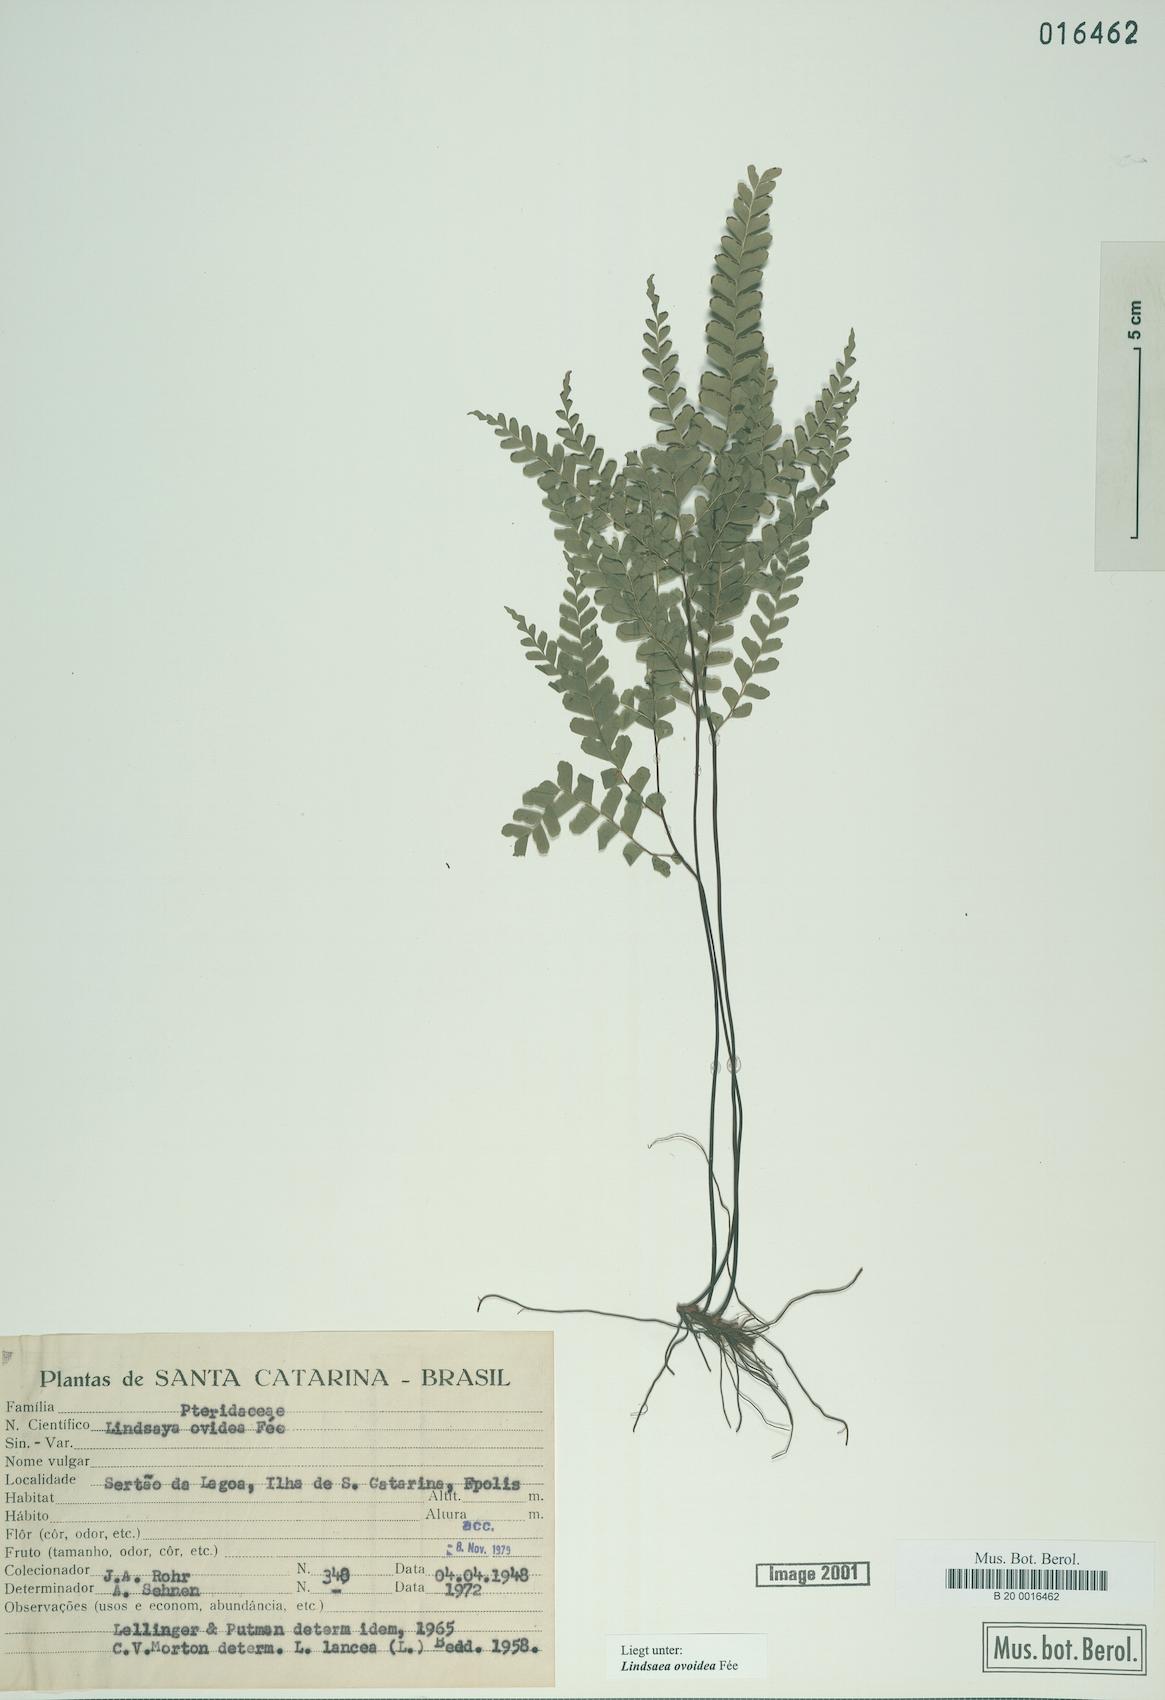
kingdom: Plantae
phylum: Tracheophyta
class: Polypodiopsida
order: Polypodiales
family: Lindsaeaceae
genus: Lindsaea
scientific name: Lindsaea ovoidea
